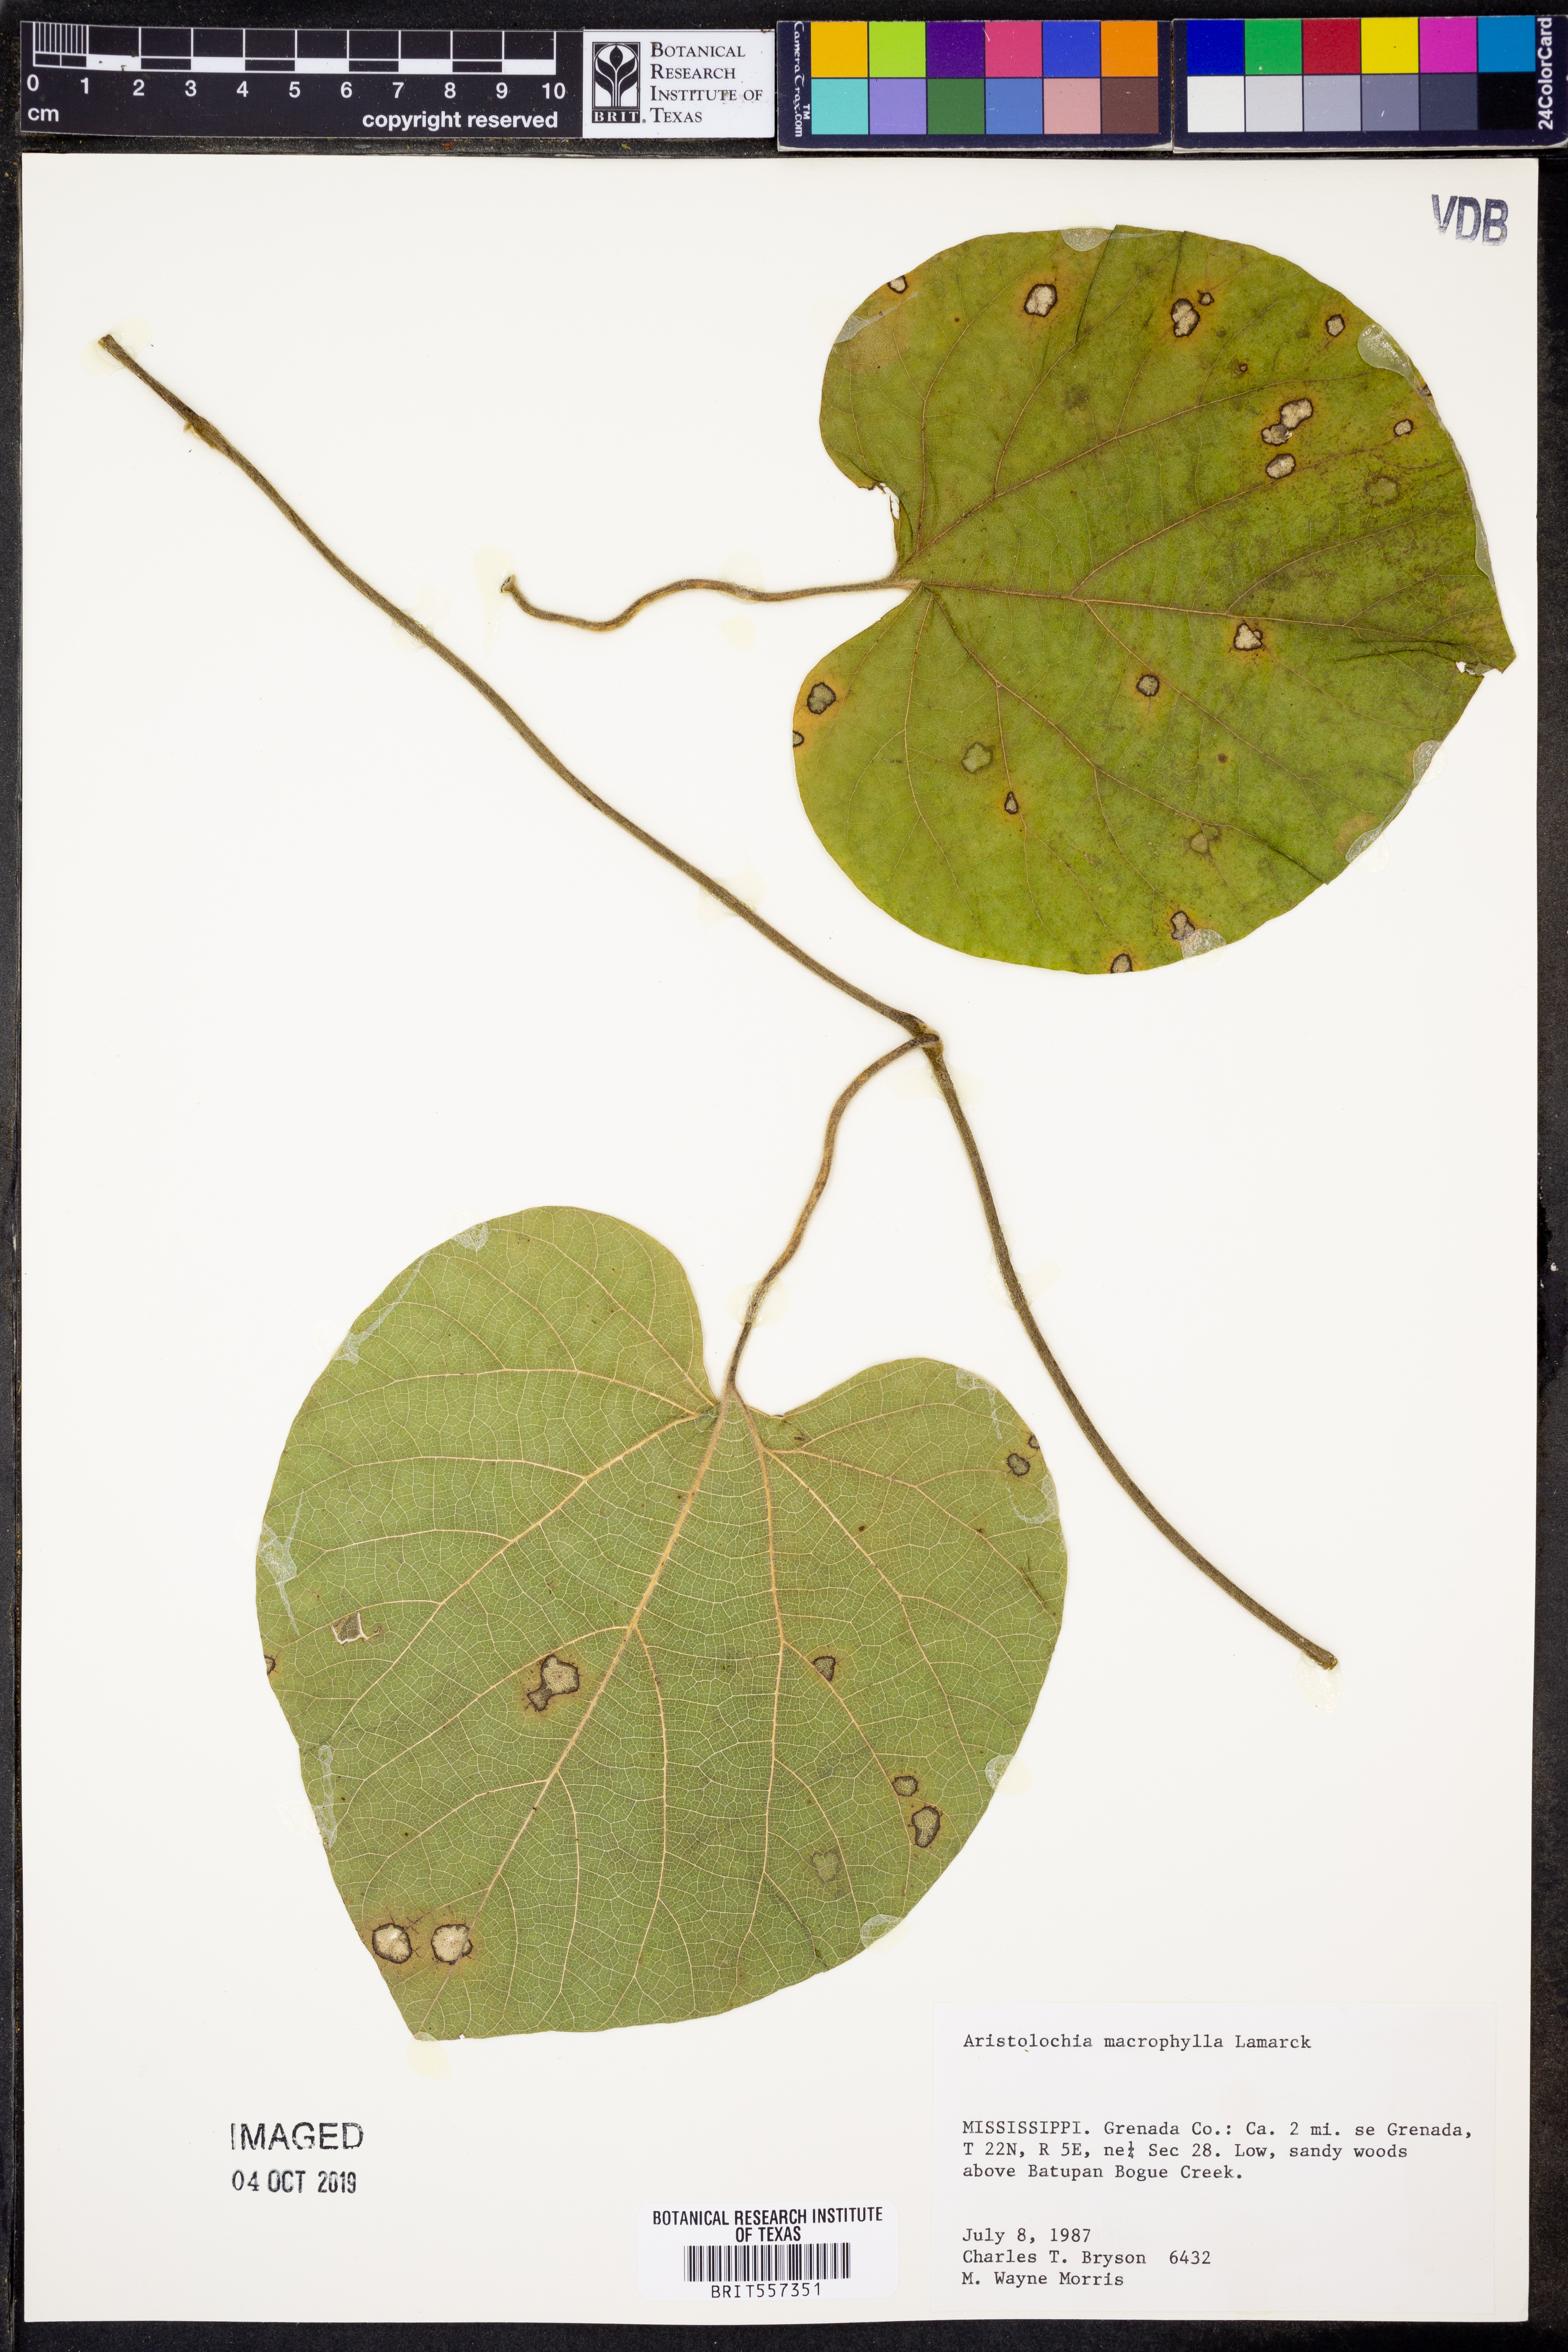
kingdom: Plantae
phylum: Tracheophyta
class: Magnoliopsida
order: Piperales
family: Aristolochiaceae
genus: Isotrema
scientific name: Isotrema macrophyllum
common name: Dutchman's-pipe
